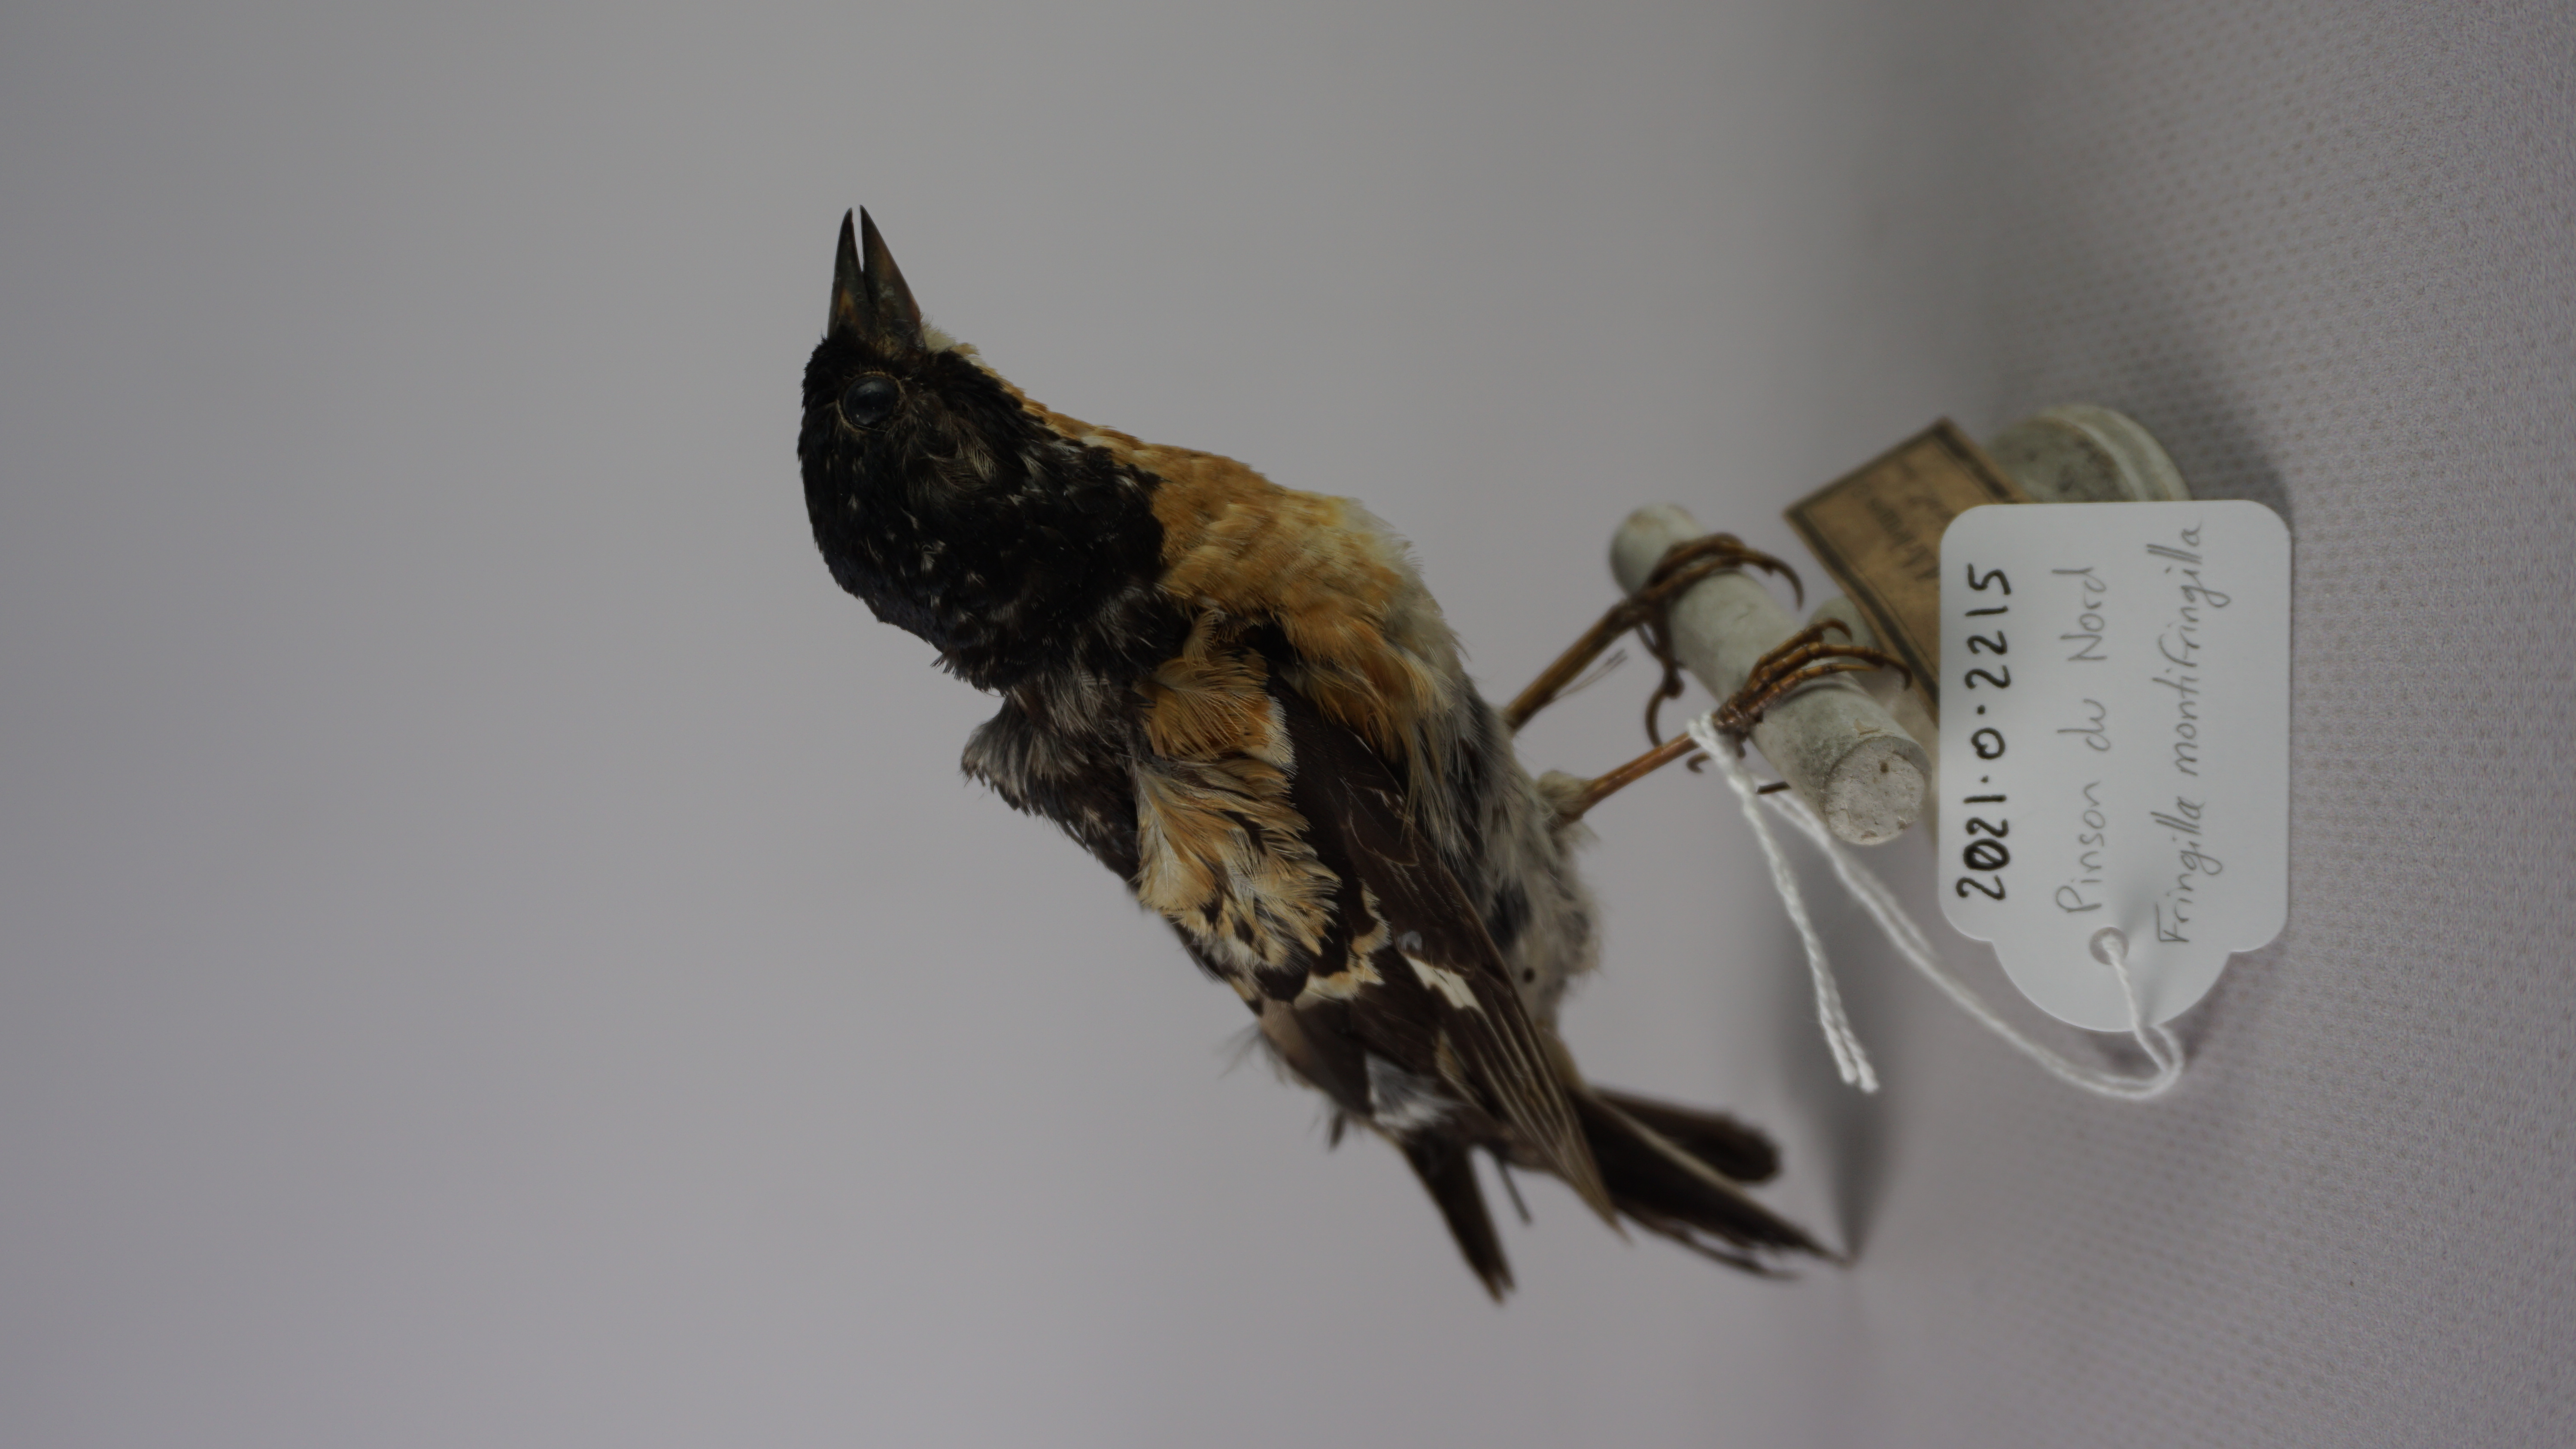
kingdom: Animalia
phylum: Chordata
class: Aves
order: Passeriformes
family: Fringillidae
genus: Fringilla
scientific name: Fringilla montifringilla
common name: Brambling
